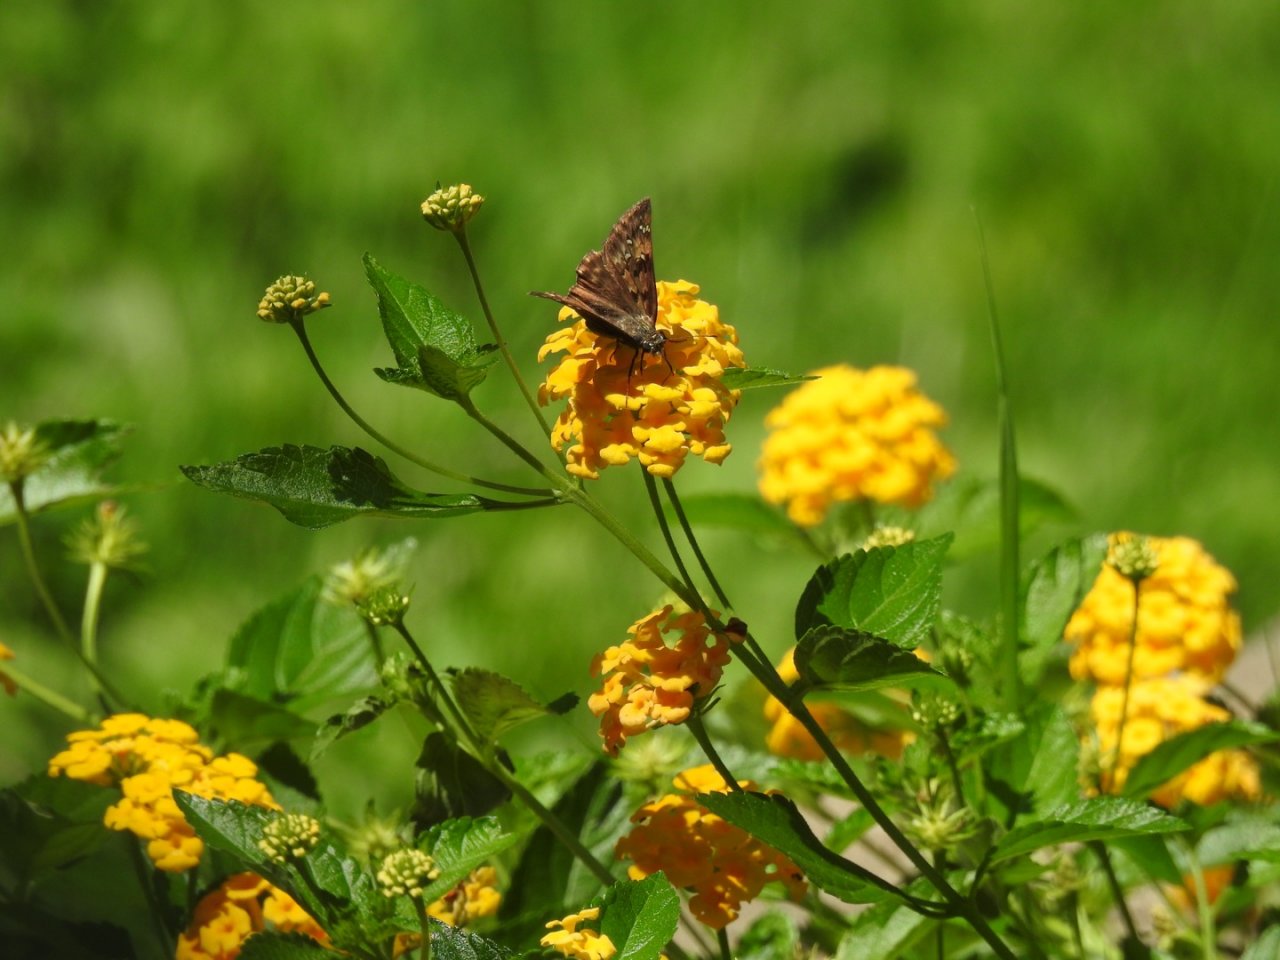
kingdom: Animalia
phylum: Arthropoda
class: Insecta
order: Lepidoptera
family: Hesperiidae
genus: Gesta
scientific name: Gesta
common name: Horace's Duskywing
